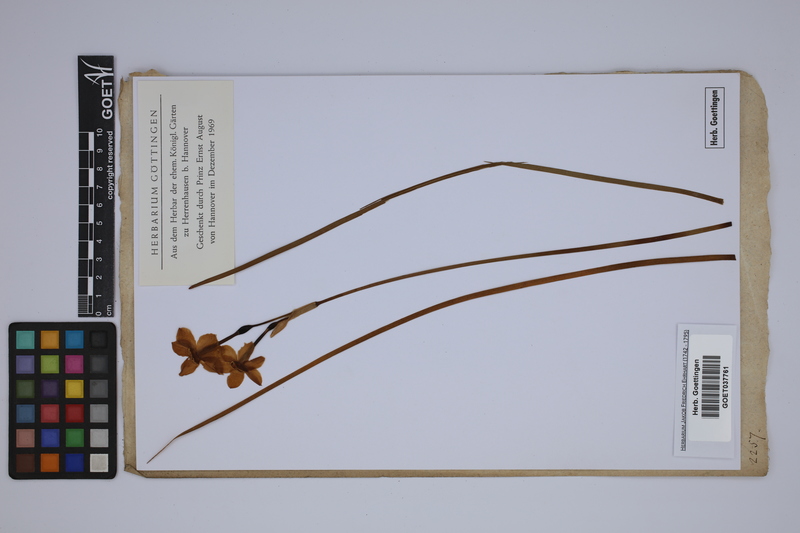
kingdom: Plantae
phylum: Tracheophyta
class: Liliopsida
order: Asparagales
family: Amaryllidaceae
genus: Narcissus
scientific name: Narcissus jonquilla
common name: Jonquil
